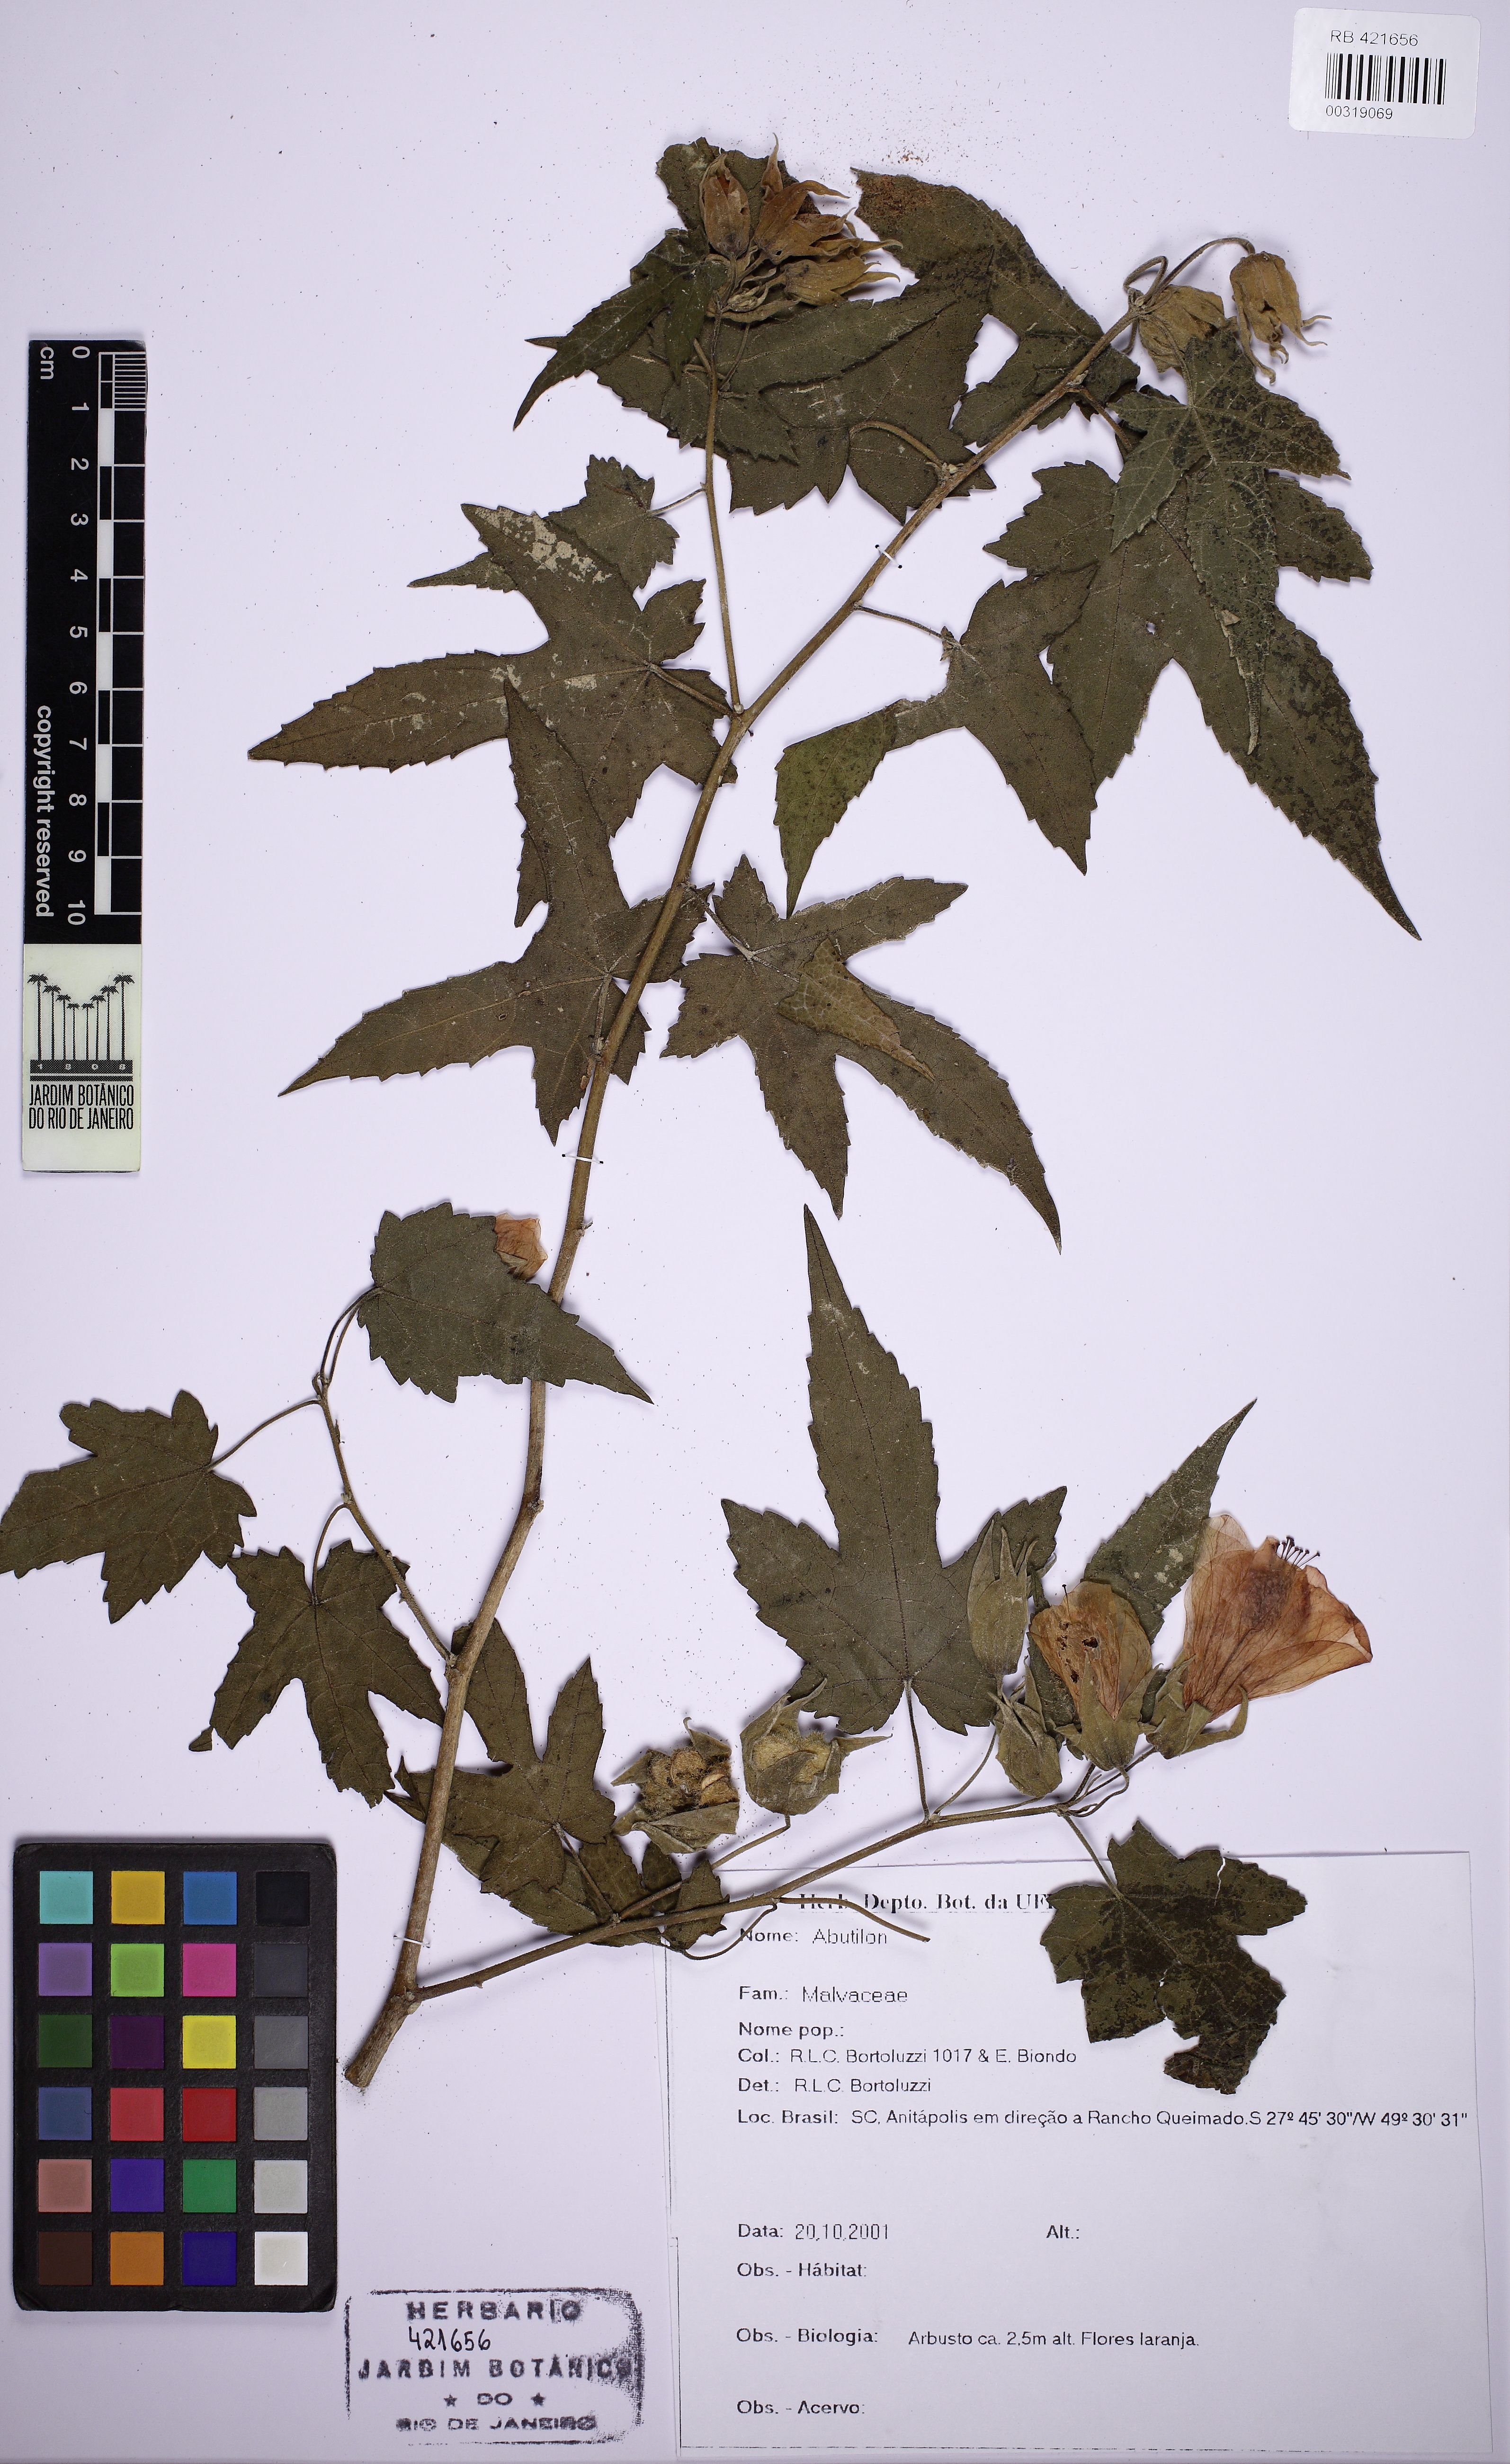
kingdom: Plantae
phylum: Tracheophyta
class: Magnoliopsida
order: Malvales
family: Malvaceae
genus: Abutilon
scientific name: Abutilon
